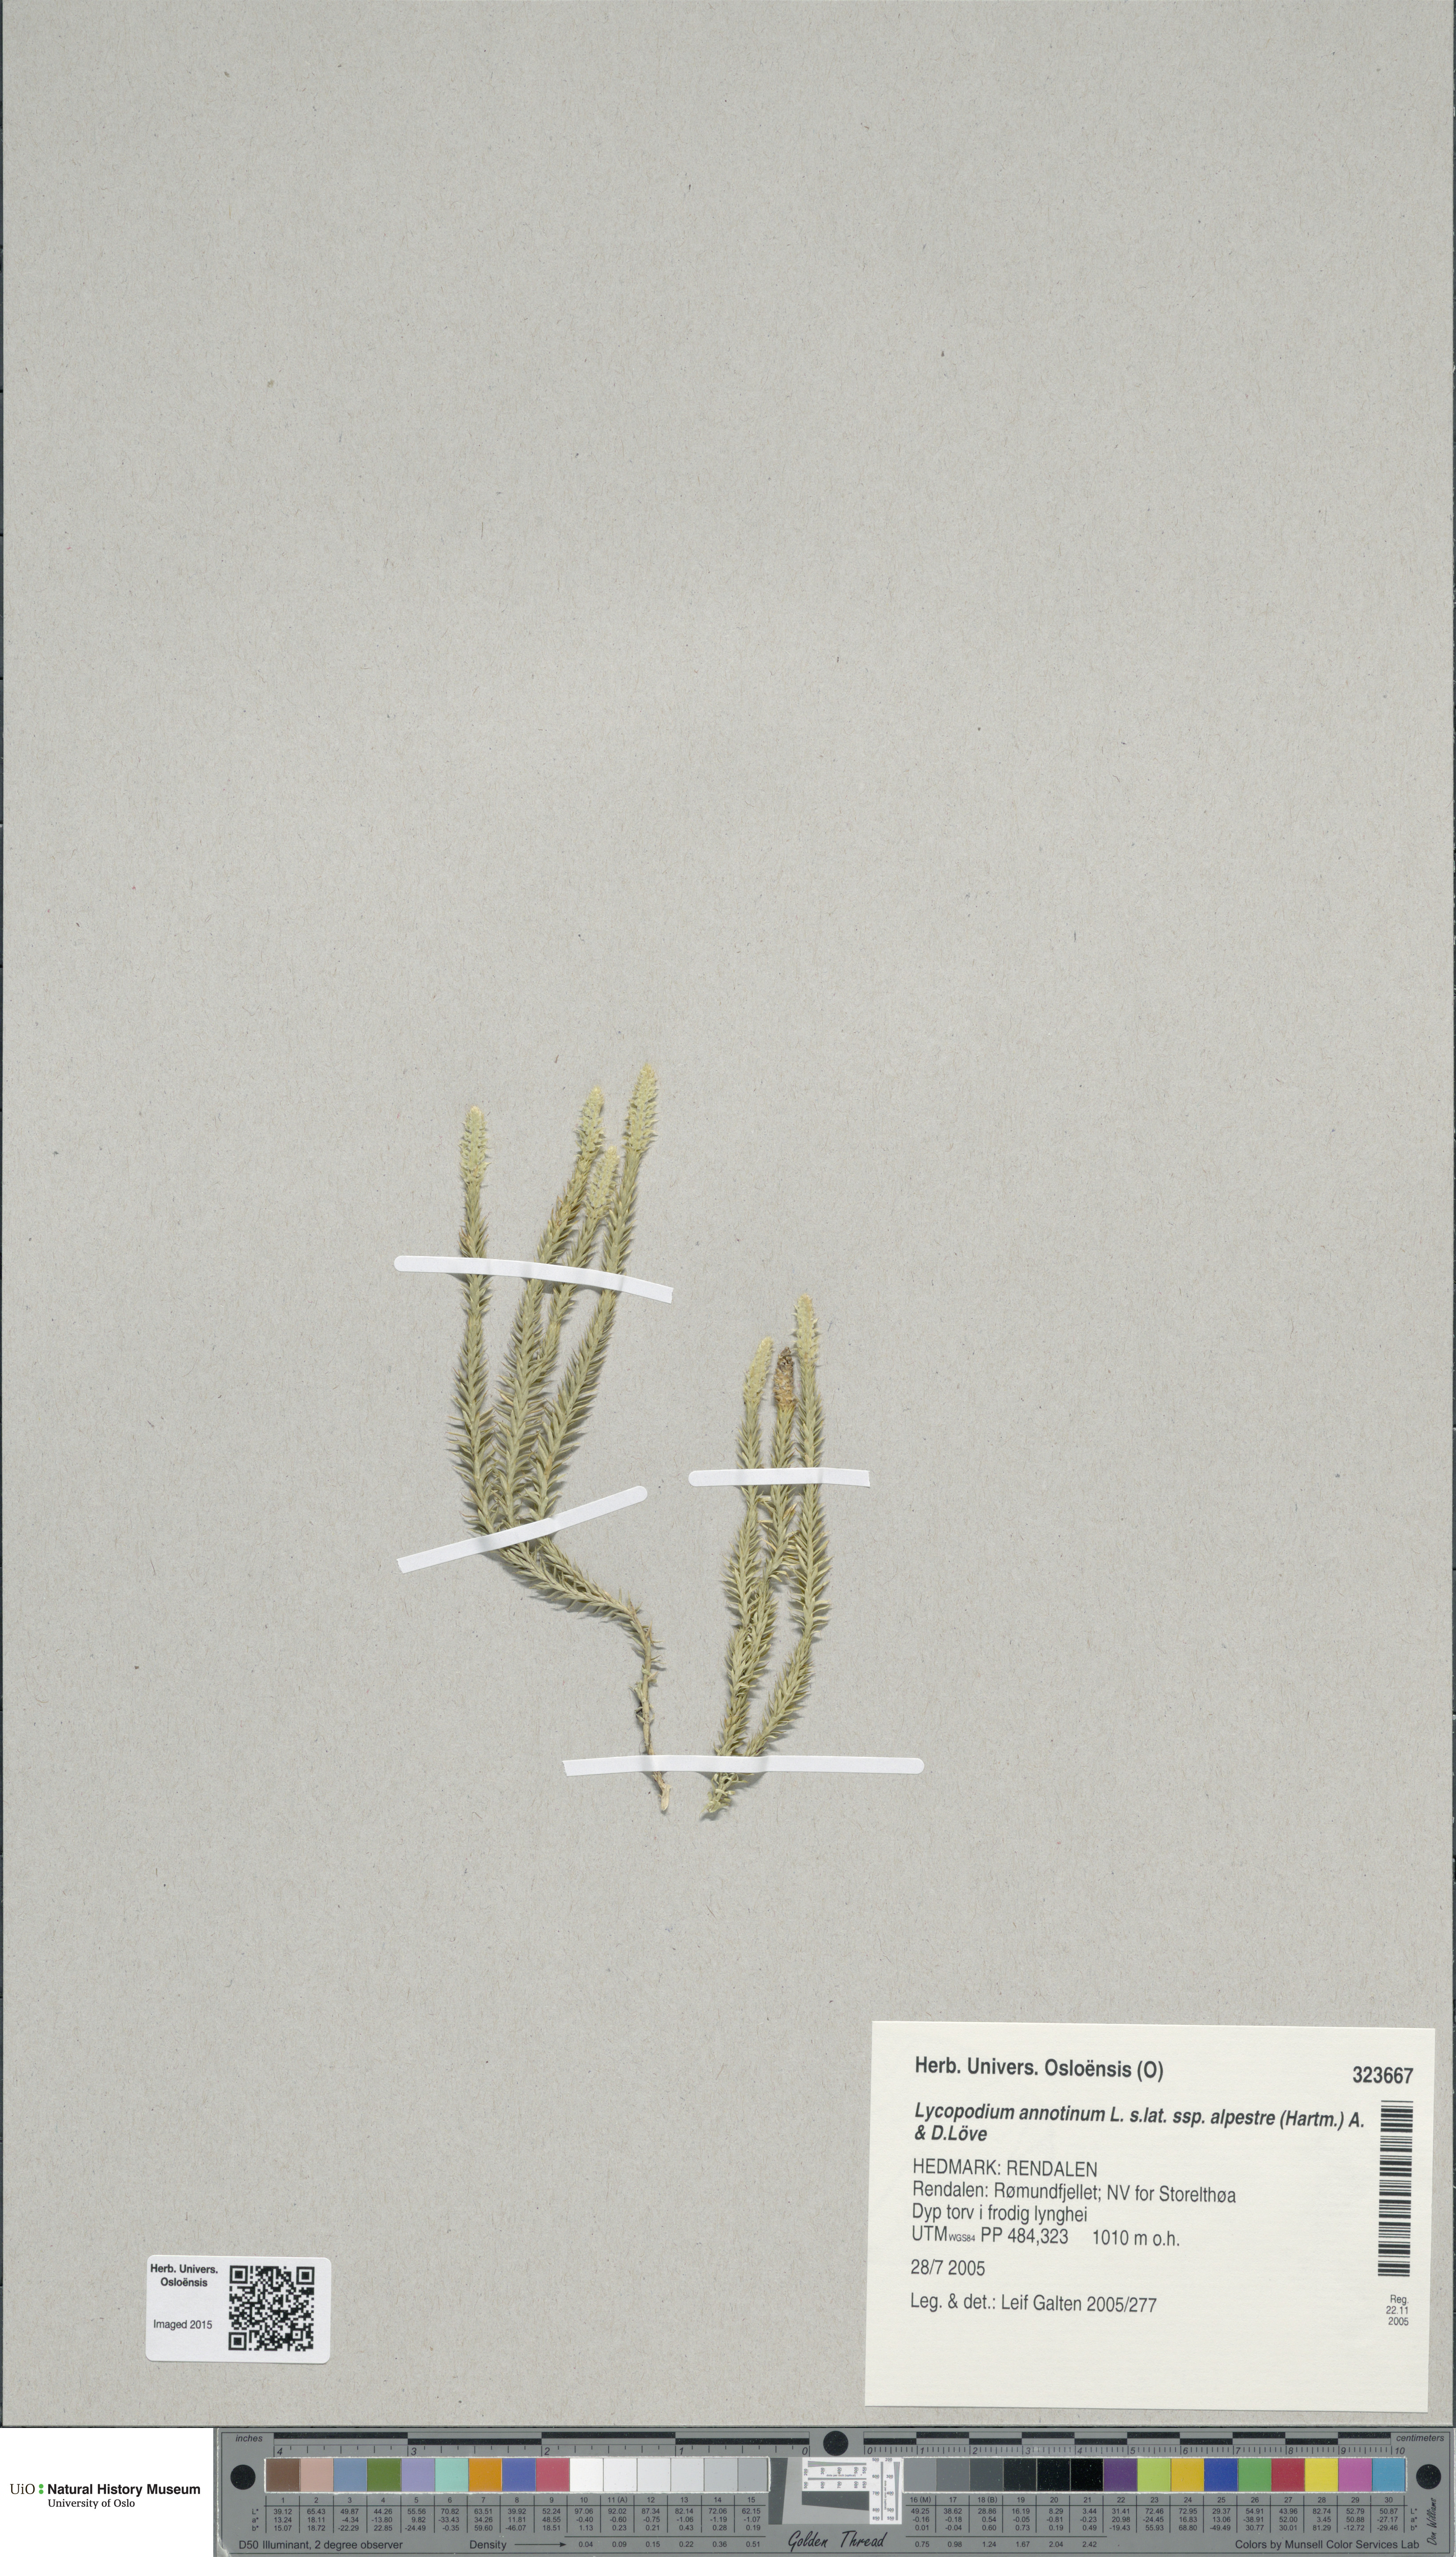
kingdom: Plantae
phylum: Tracheophyta
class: Lycopodiopsida
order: Lycopodiales
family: Lycopodiaceae
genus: Spinulum
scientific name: Spinulum annotinum
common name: Interrupted club-moss
